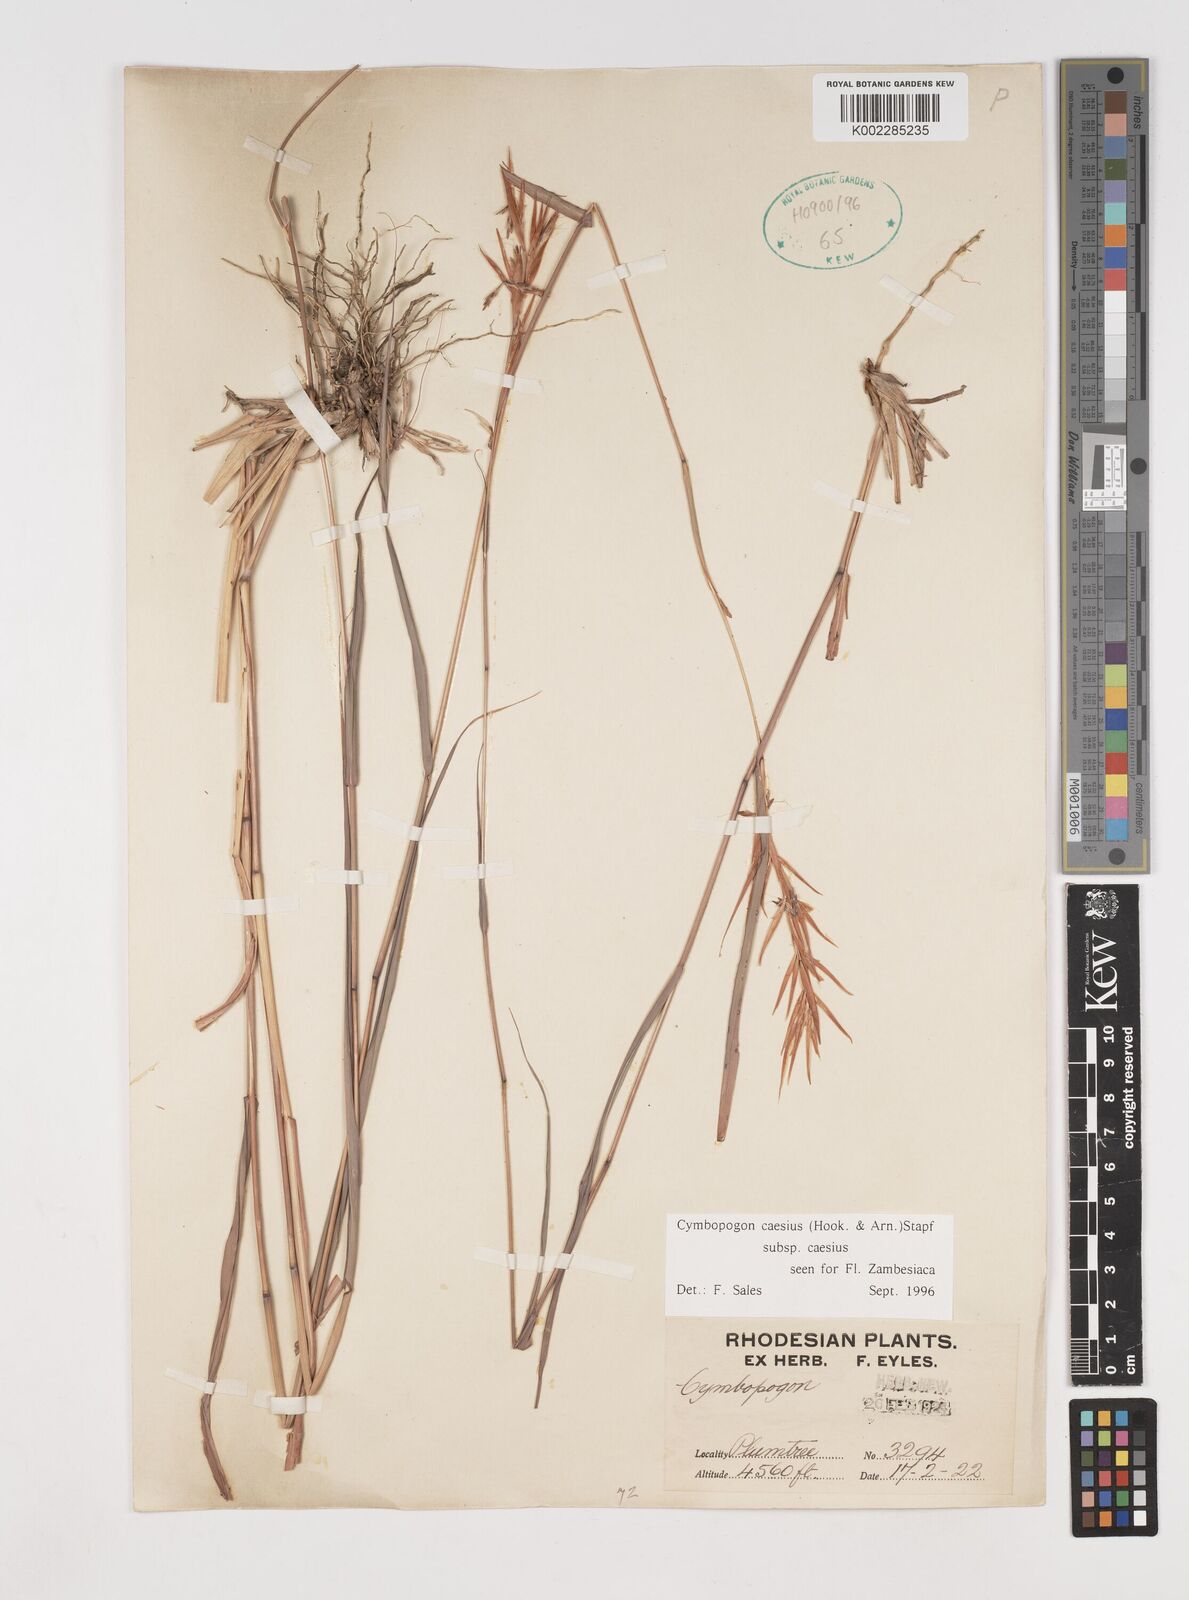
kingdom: Plantae
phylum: Tracheophyta
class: Liliopsida
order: Poales
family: Poaceae
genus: Cymbopogon
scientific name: Cymbopogon caesius
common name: Kachi grass
